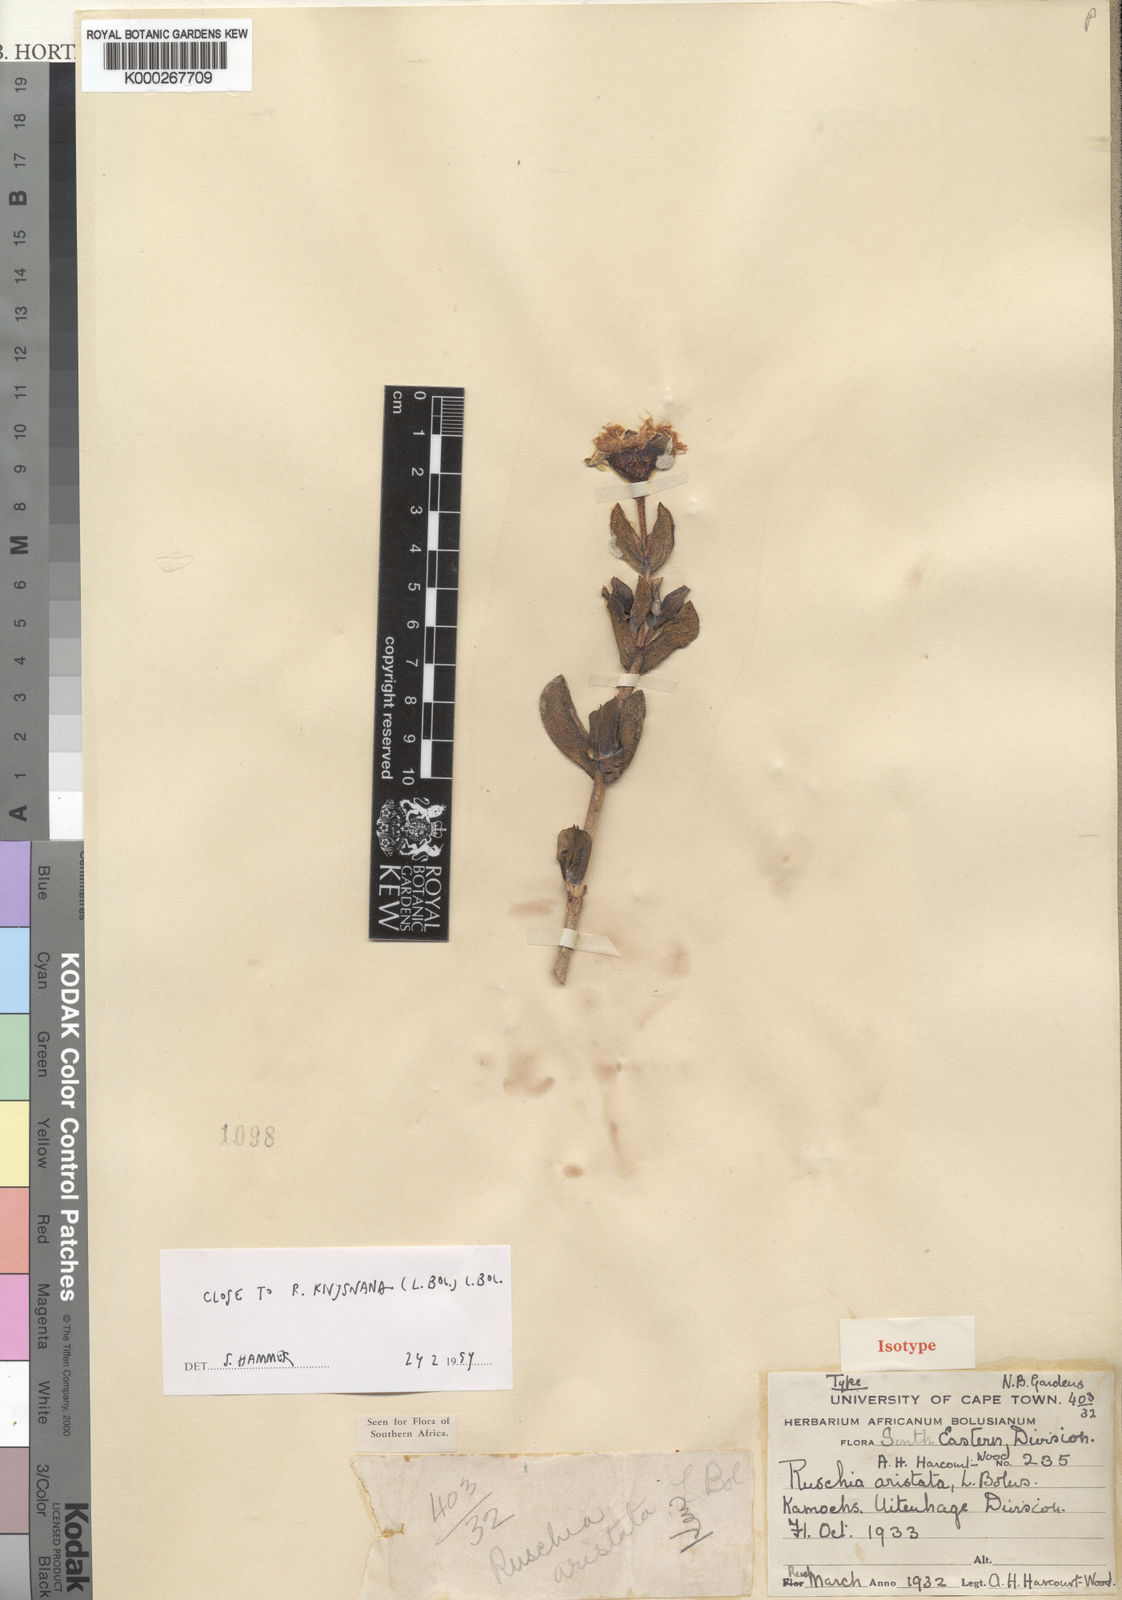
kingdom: Plantae
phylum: Tracheophyta
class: Magnoliopsida
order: Caryophyllales
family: Aizoaceae
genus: Erepsia
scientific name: Erepsia aristata
